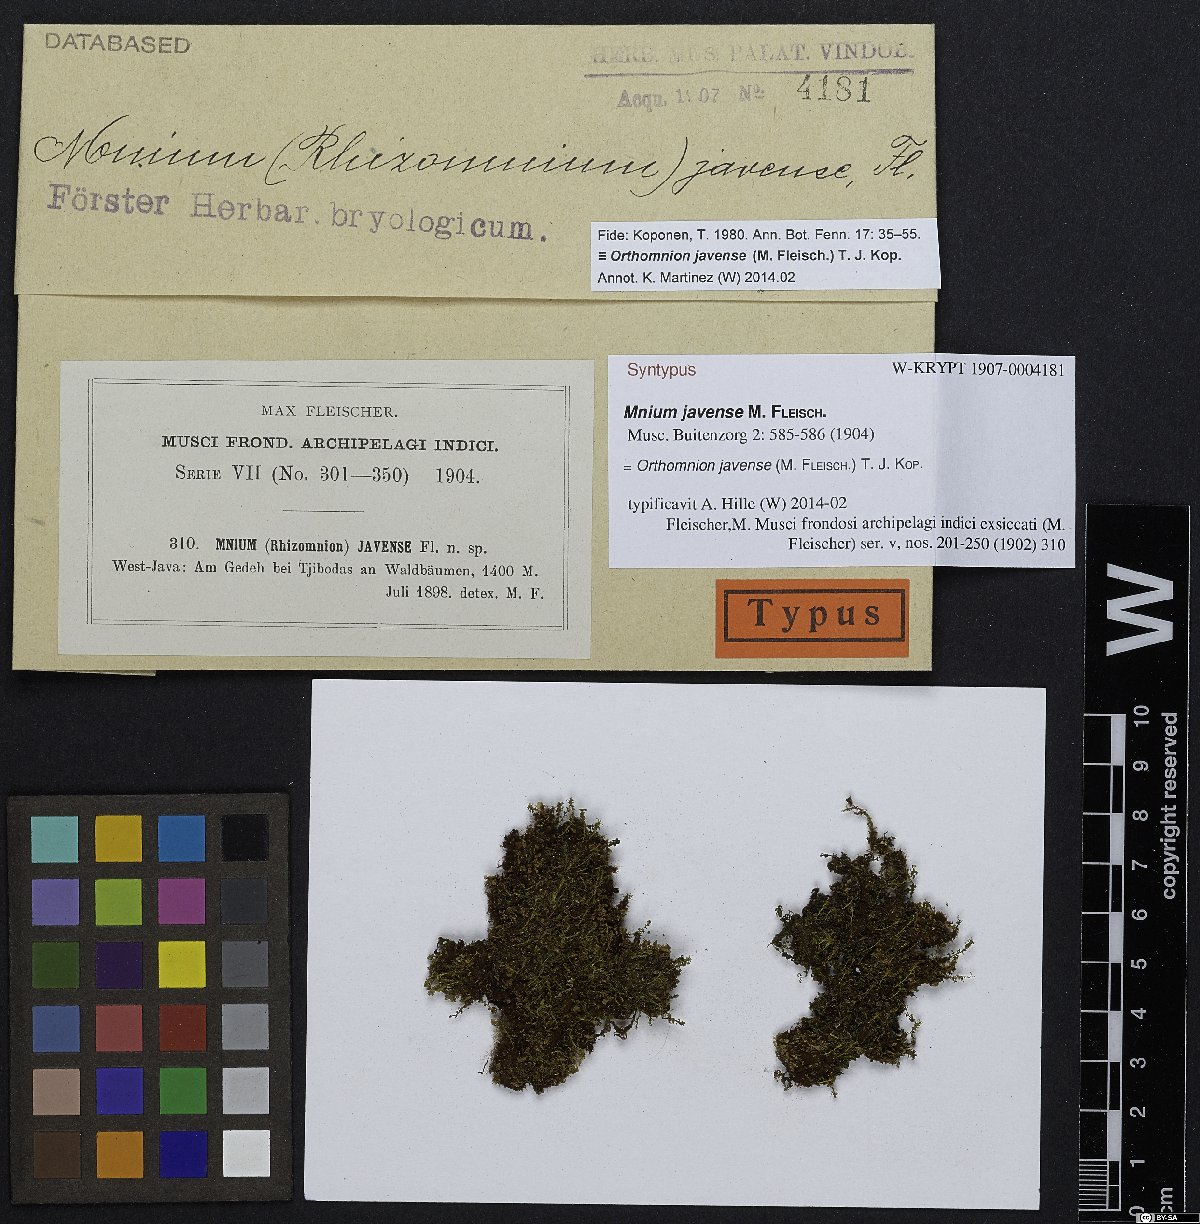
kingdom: Plantae
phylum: Bryophyta
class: Bryopsida
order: Bryales
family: Mniaceae
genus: Orthomnion
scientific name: Orthomnion javense
